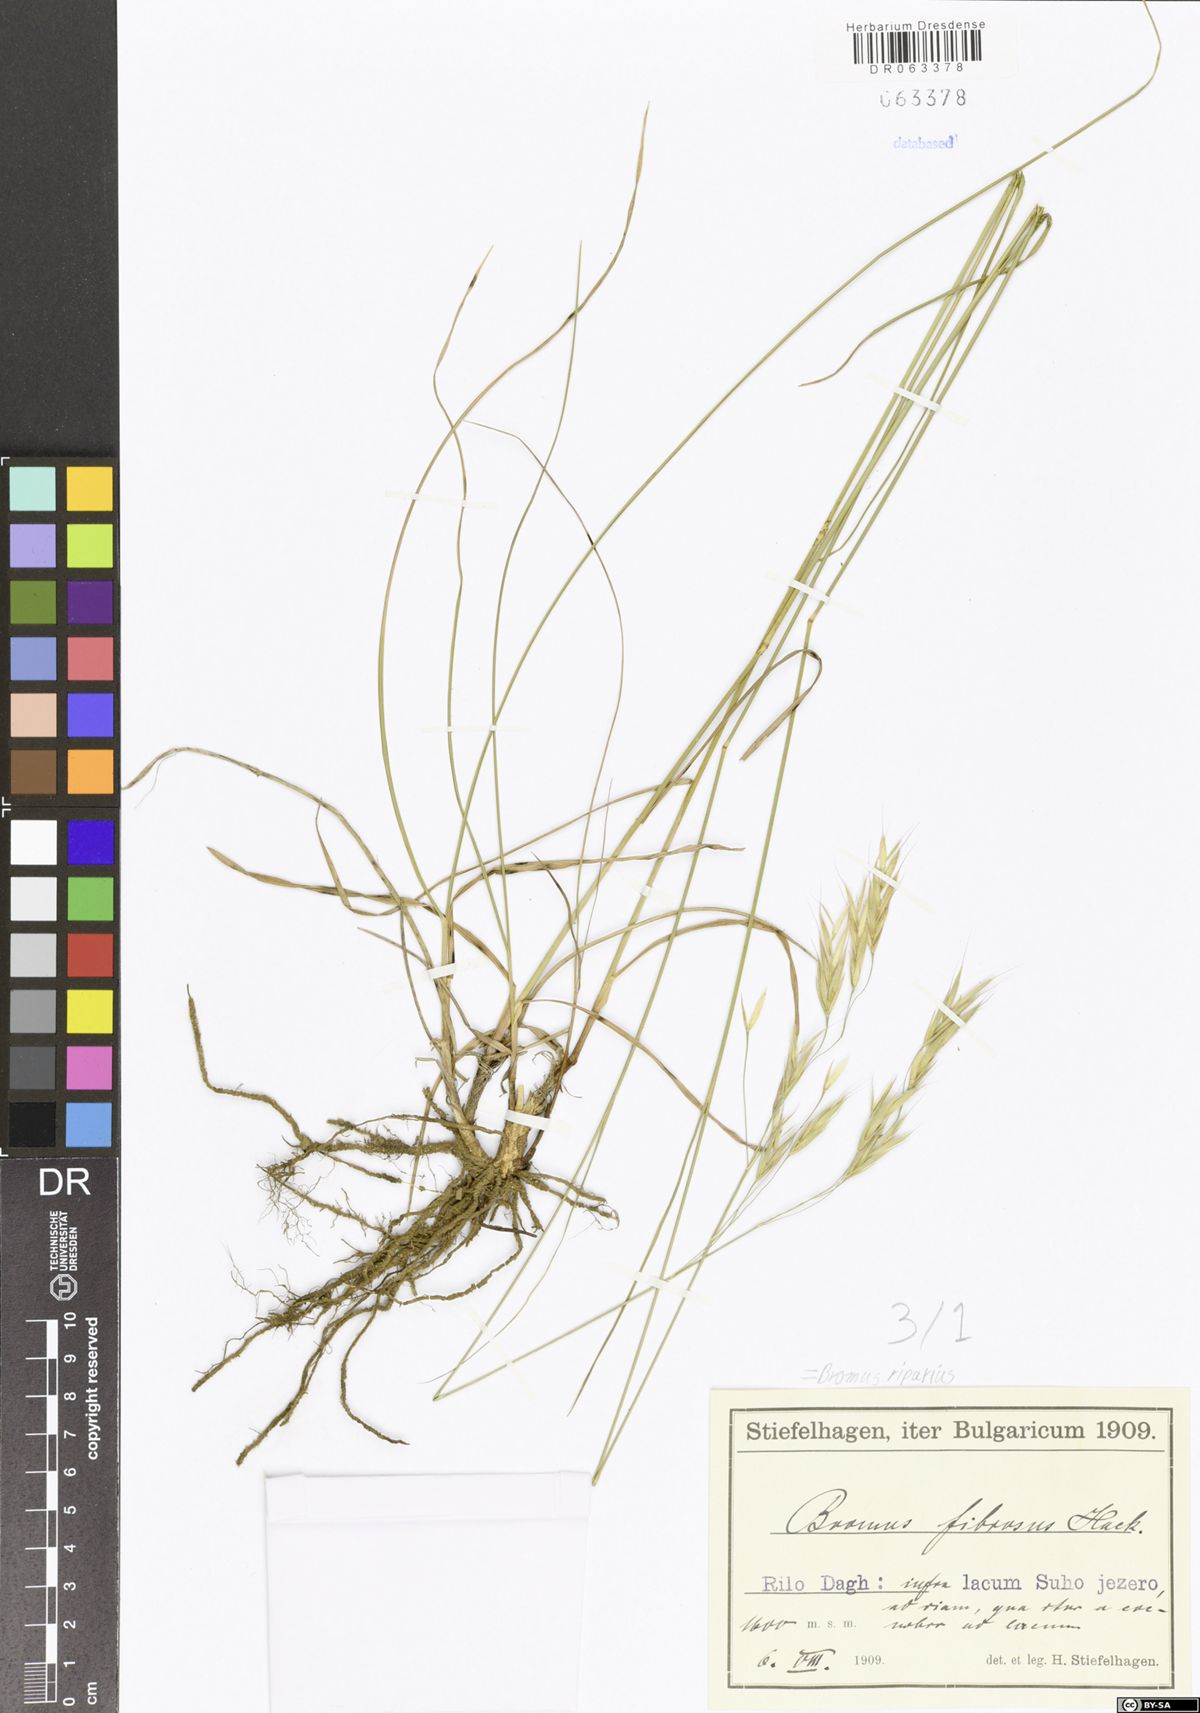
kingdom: Plantae
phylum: Tracheophyta
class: Liliopsida
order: Poales
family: Poaceae
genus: Bromus
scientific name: Bromus riparius
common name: Meadow brome
